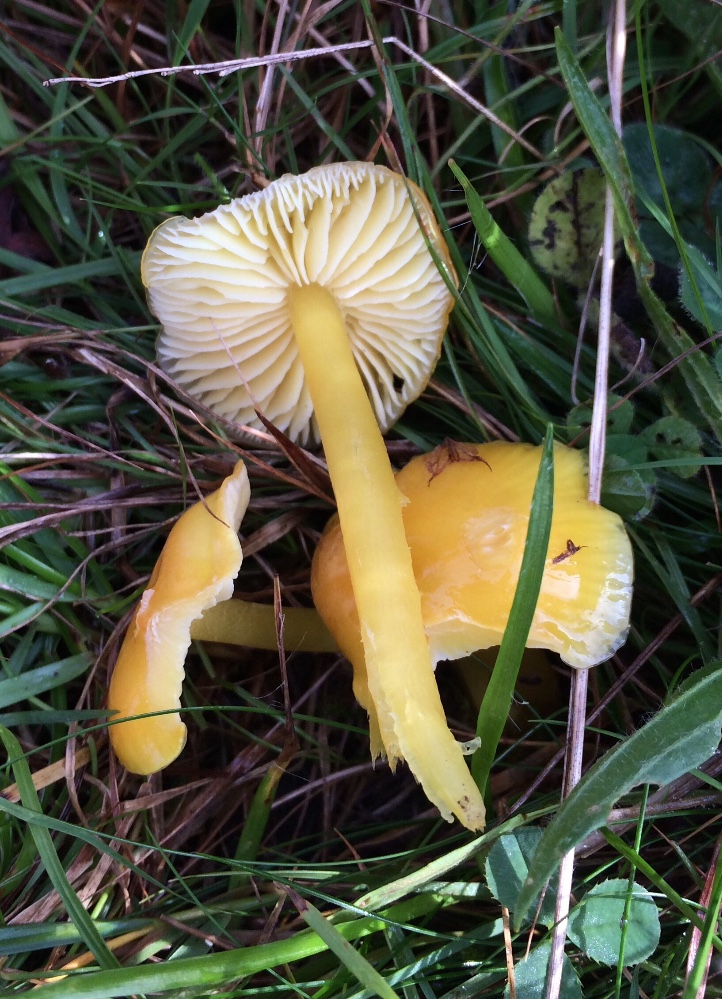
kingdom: Fungi
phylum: Basidiomycota
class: Agaricomycetes
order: Agaricales
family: Hygrophoraceae
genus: Hygrocybe
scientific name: Hygrocybe chlorophana
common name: gul vokshat
